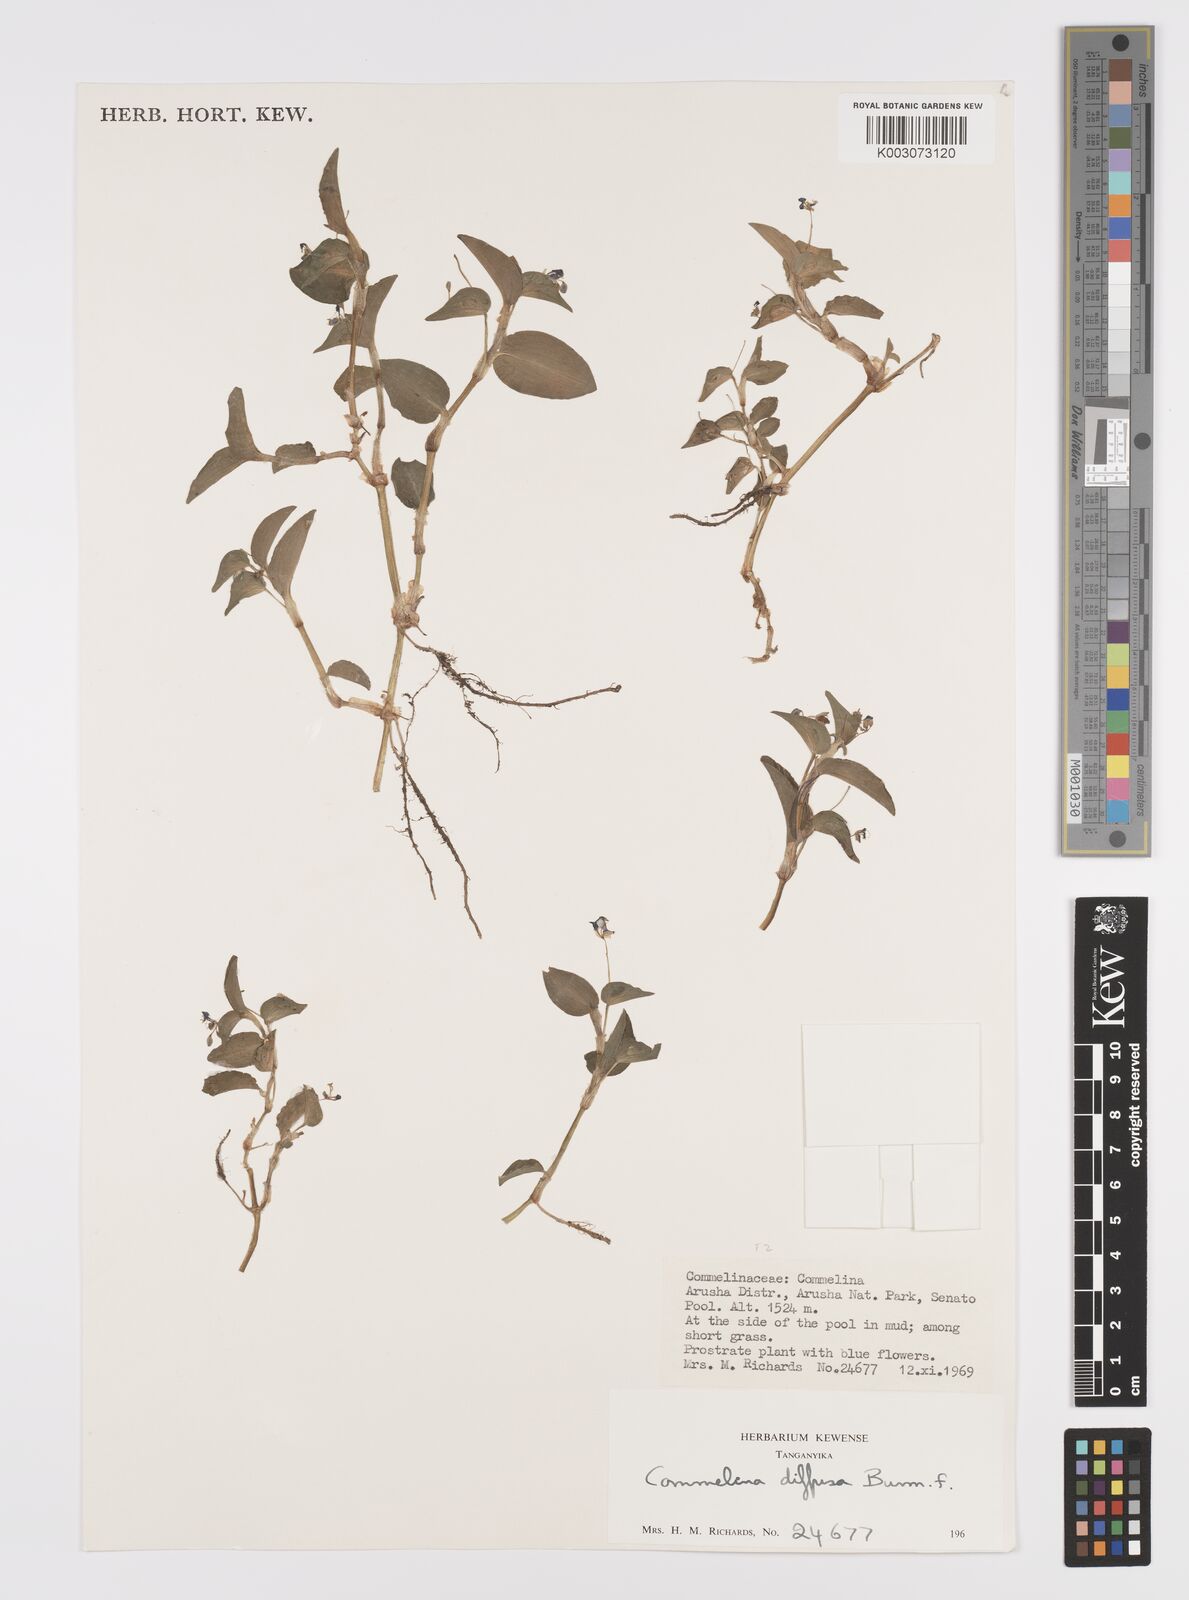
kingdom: Plantae
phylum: Tracheophyta
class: Liliopsida
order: Commelinales
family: Commelinaceae
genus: Commelina
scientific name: Commelina diffusa
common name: Climbing dayflower
